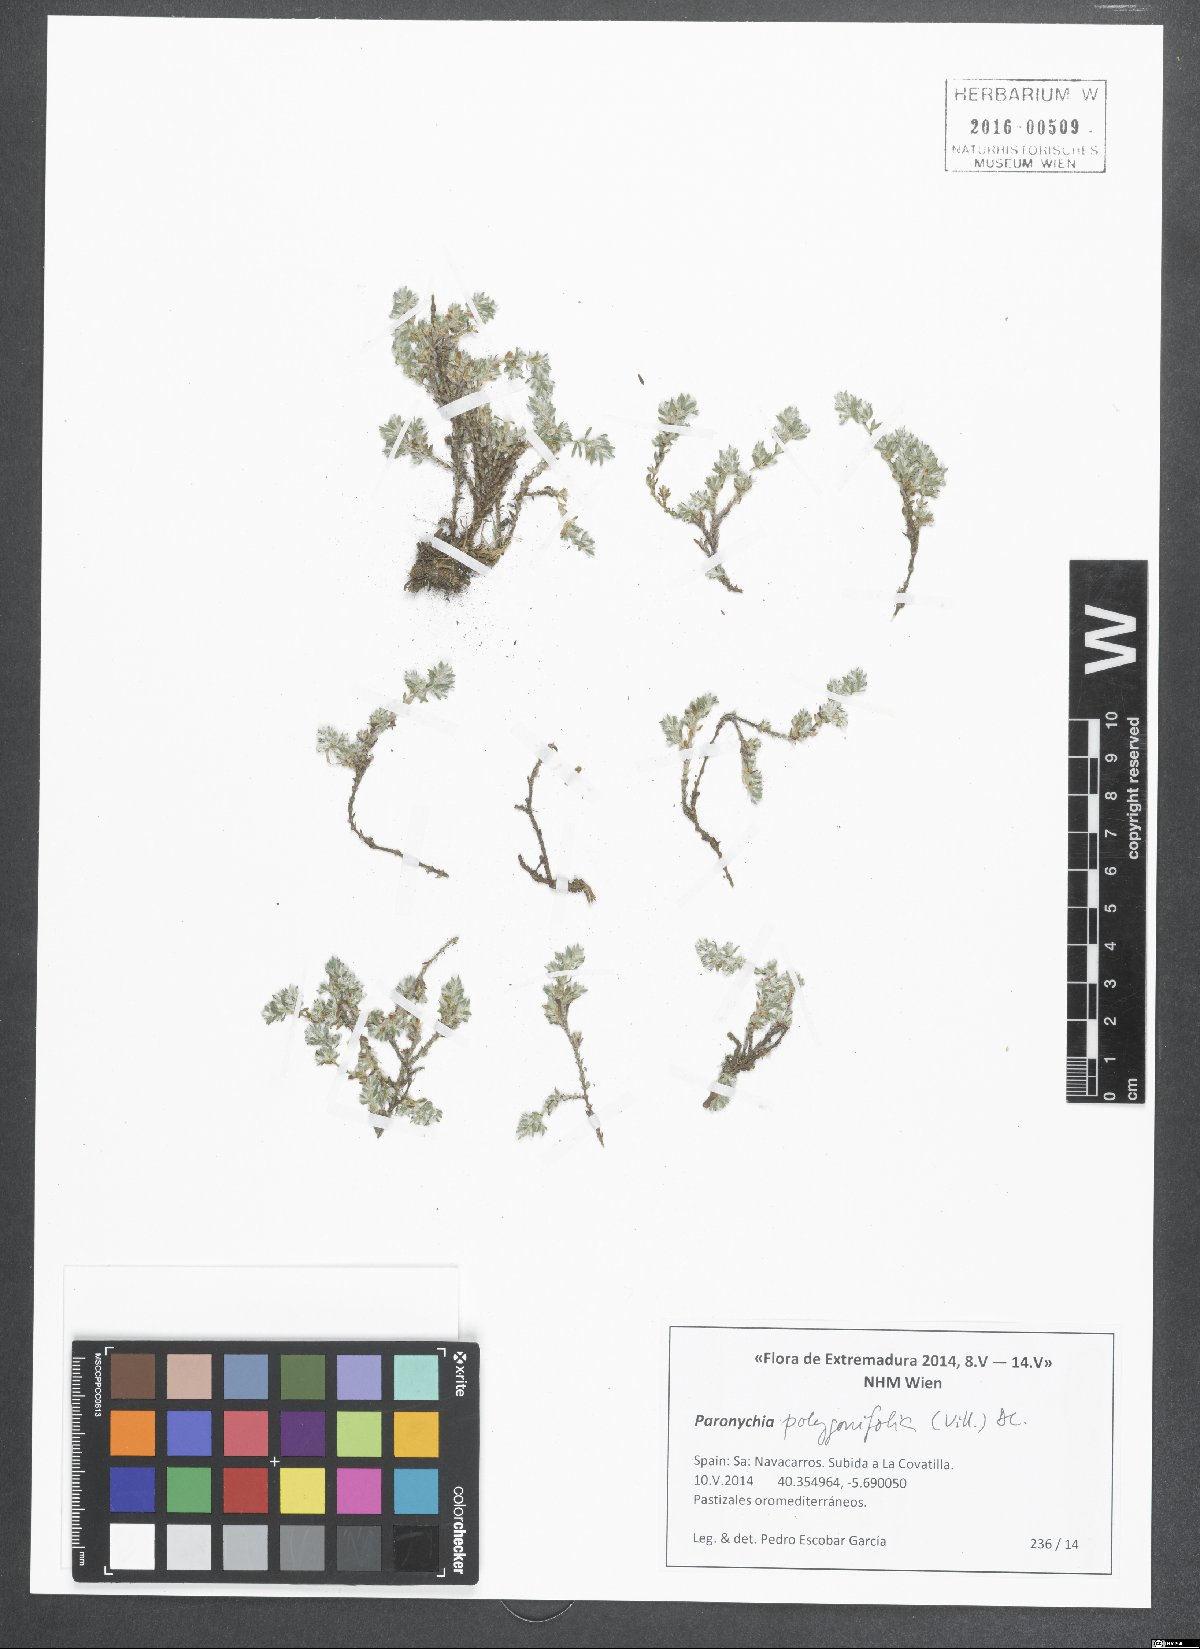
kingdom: Plantae
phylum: Tracheophyta
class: Magnoliopsida
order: Caryophyllales
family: Caryophyllaceae
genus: Paronychia
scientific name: Paronychia polygonifolia
